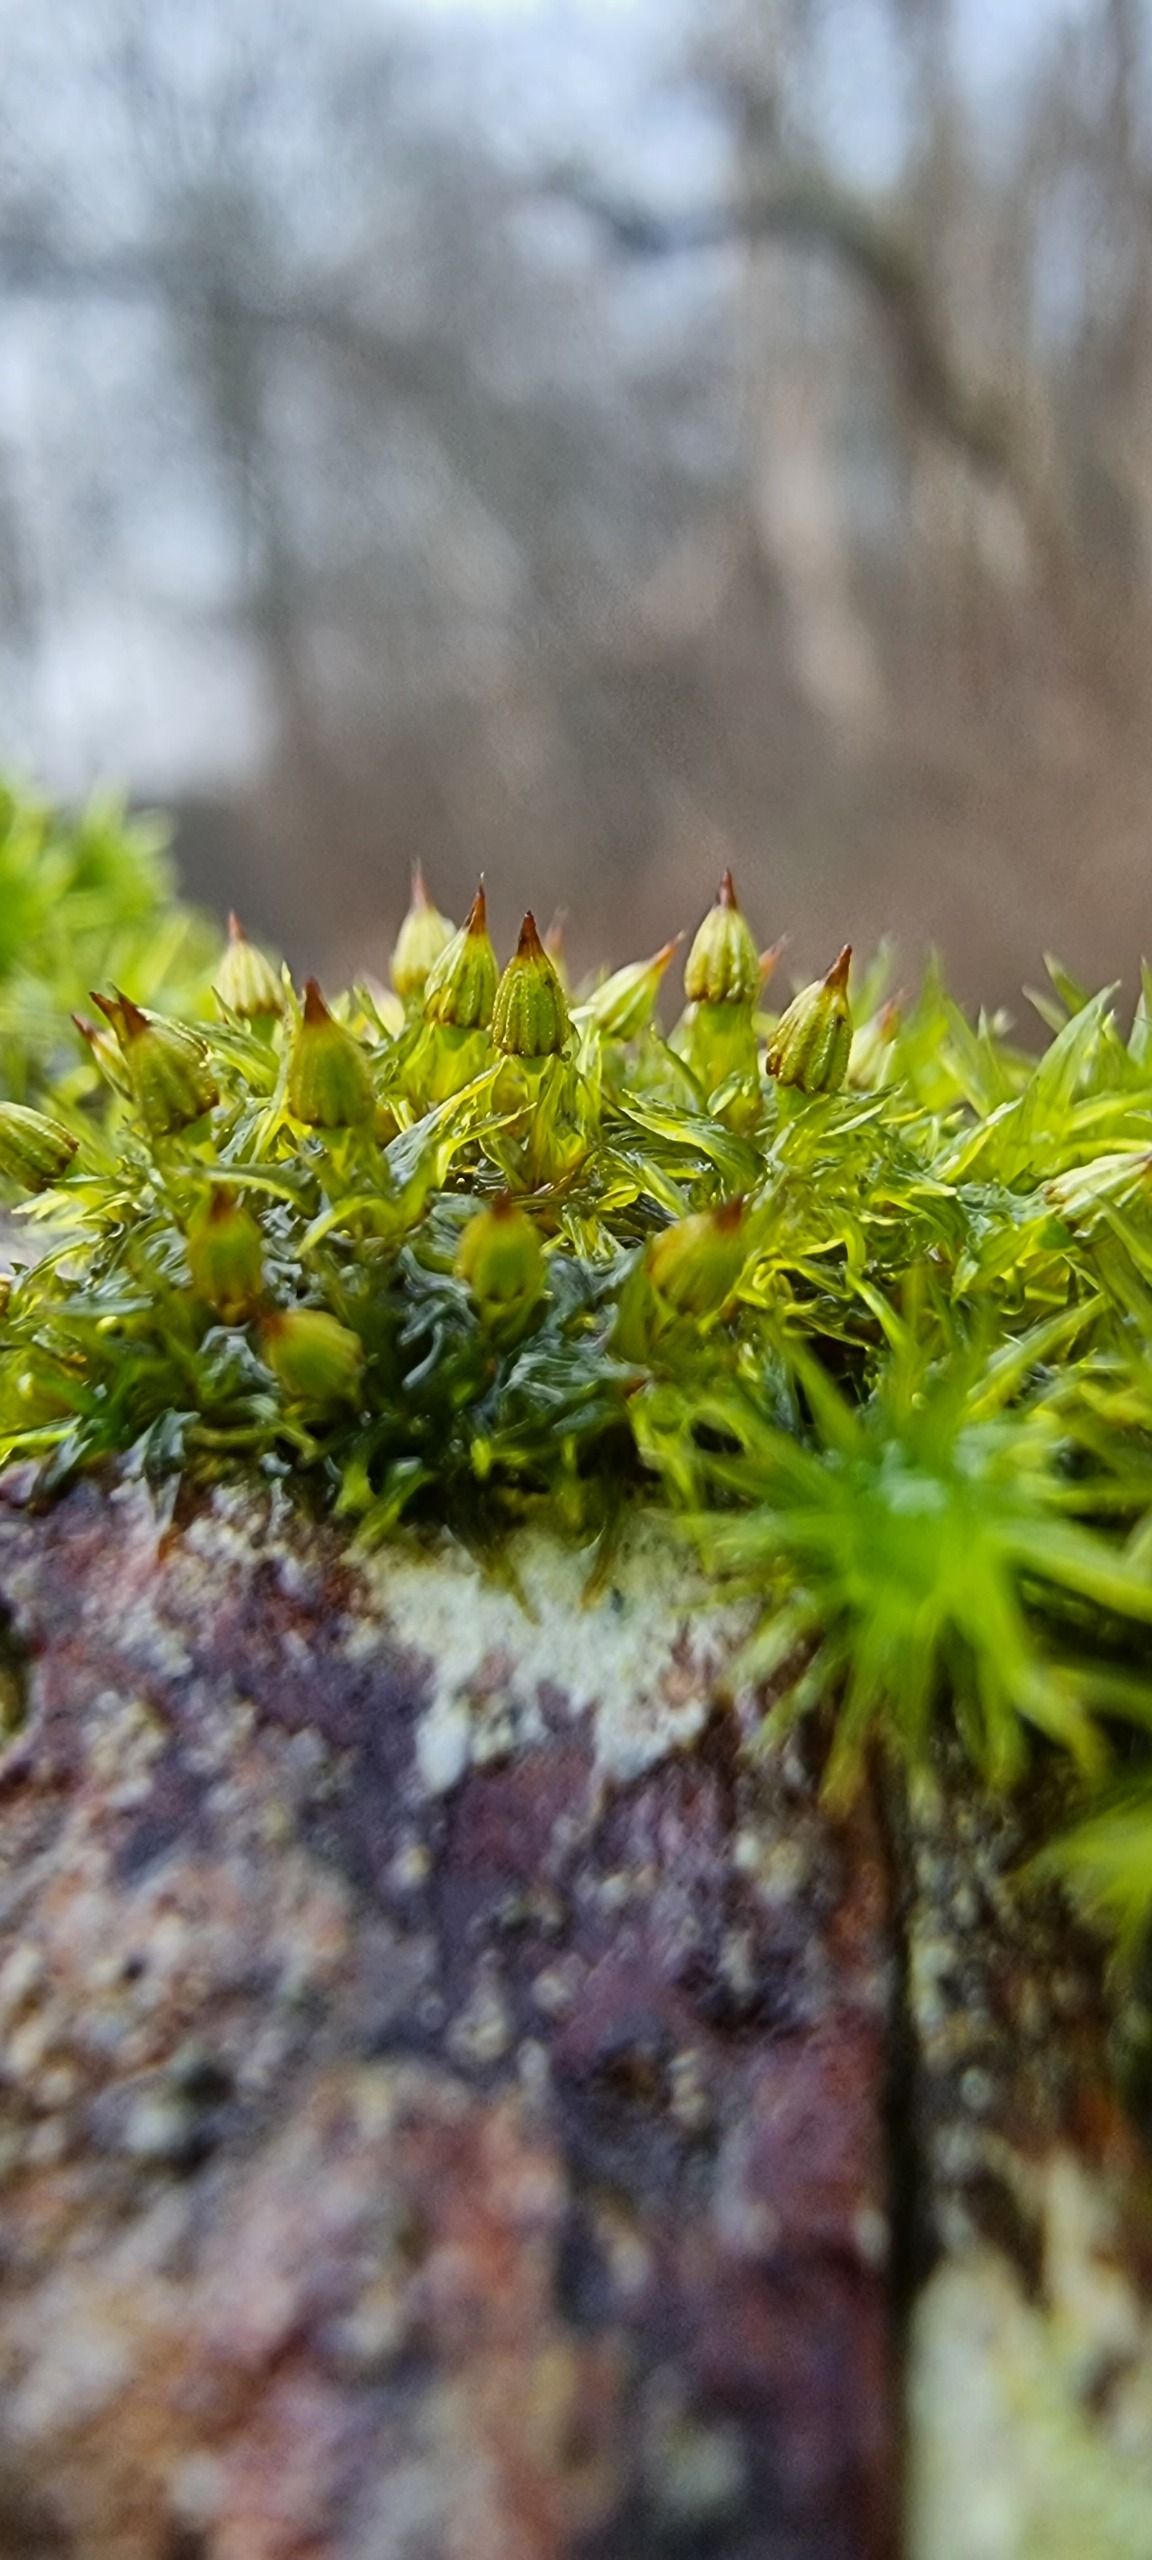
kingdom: Plantae
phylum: Bryophyta
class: Bryopsida
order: Orthotrichales
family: Orthotrichaceae
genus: Orthotrichum
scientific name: Orthotrichum pulchellum
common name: Smuk furehætte
